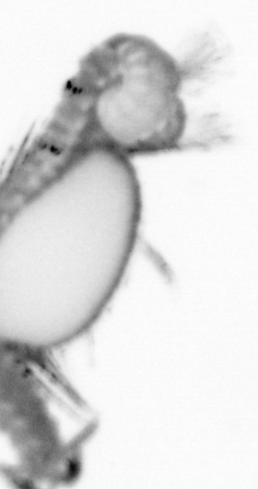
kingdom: Animalia
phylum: Annelida
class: Polychaeta
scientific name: Polychaeta
